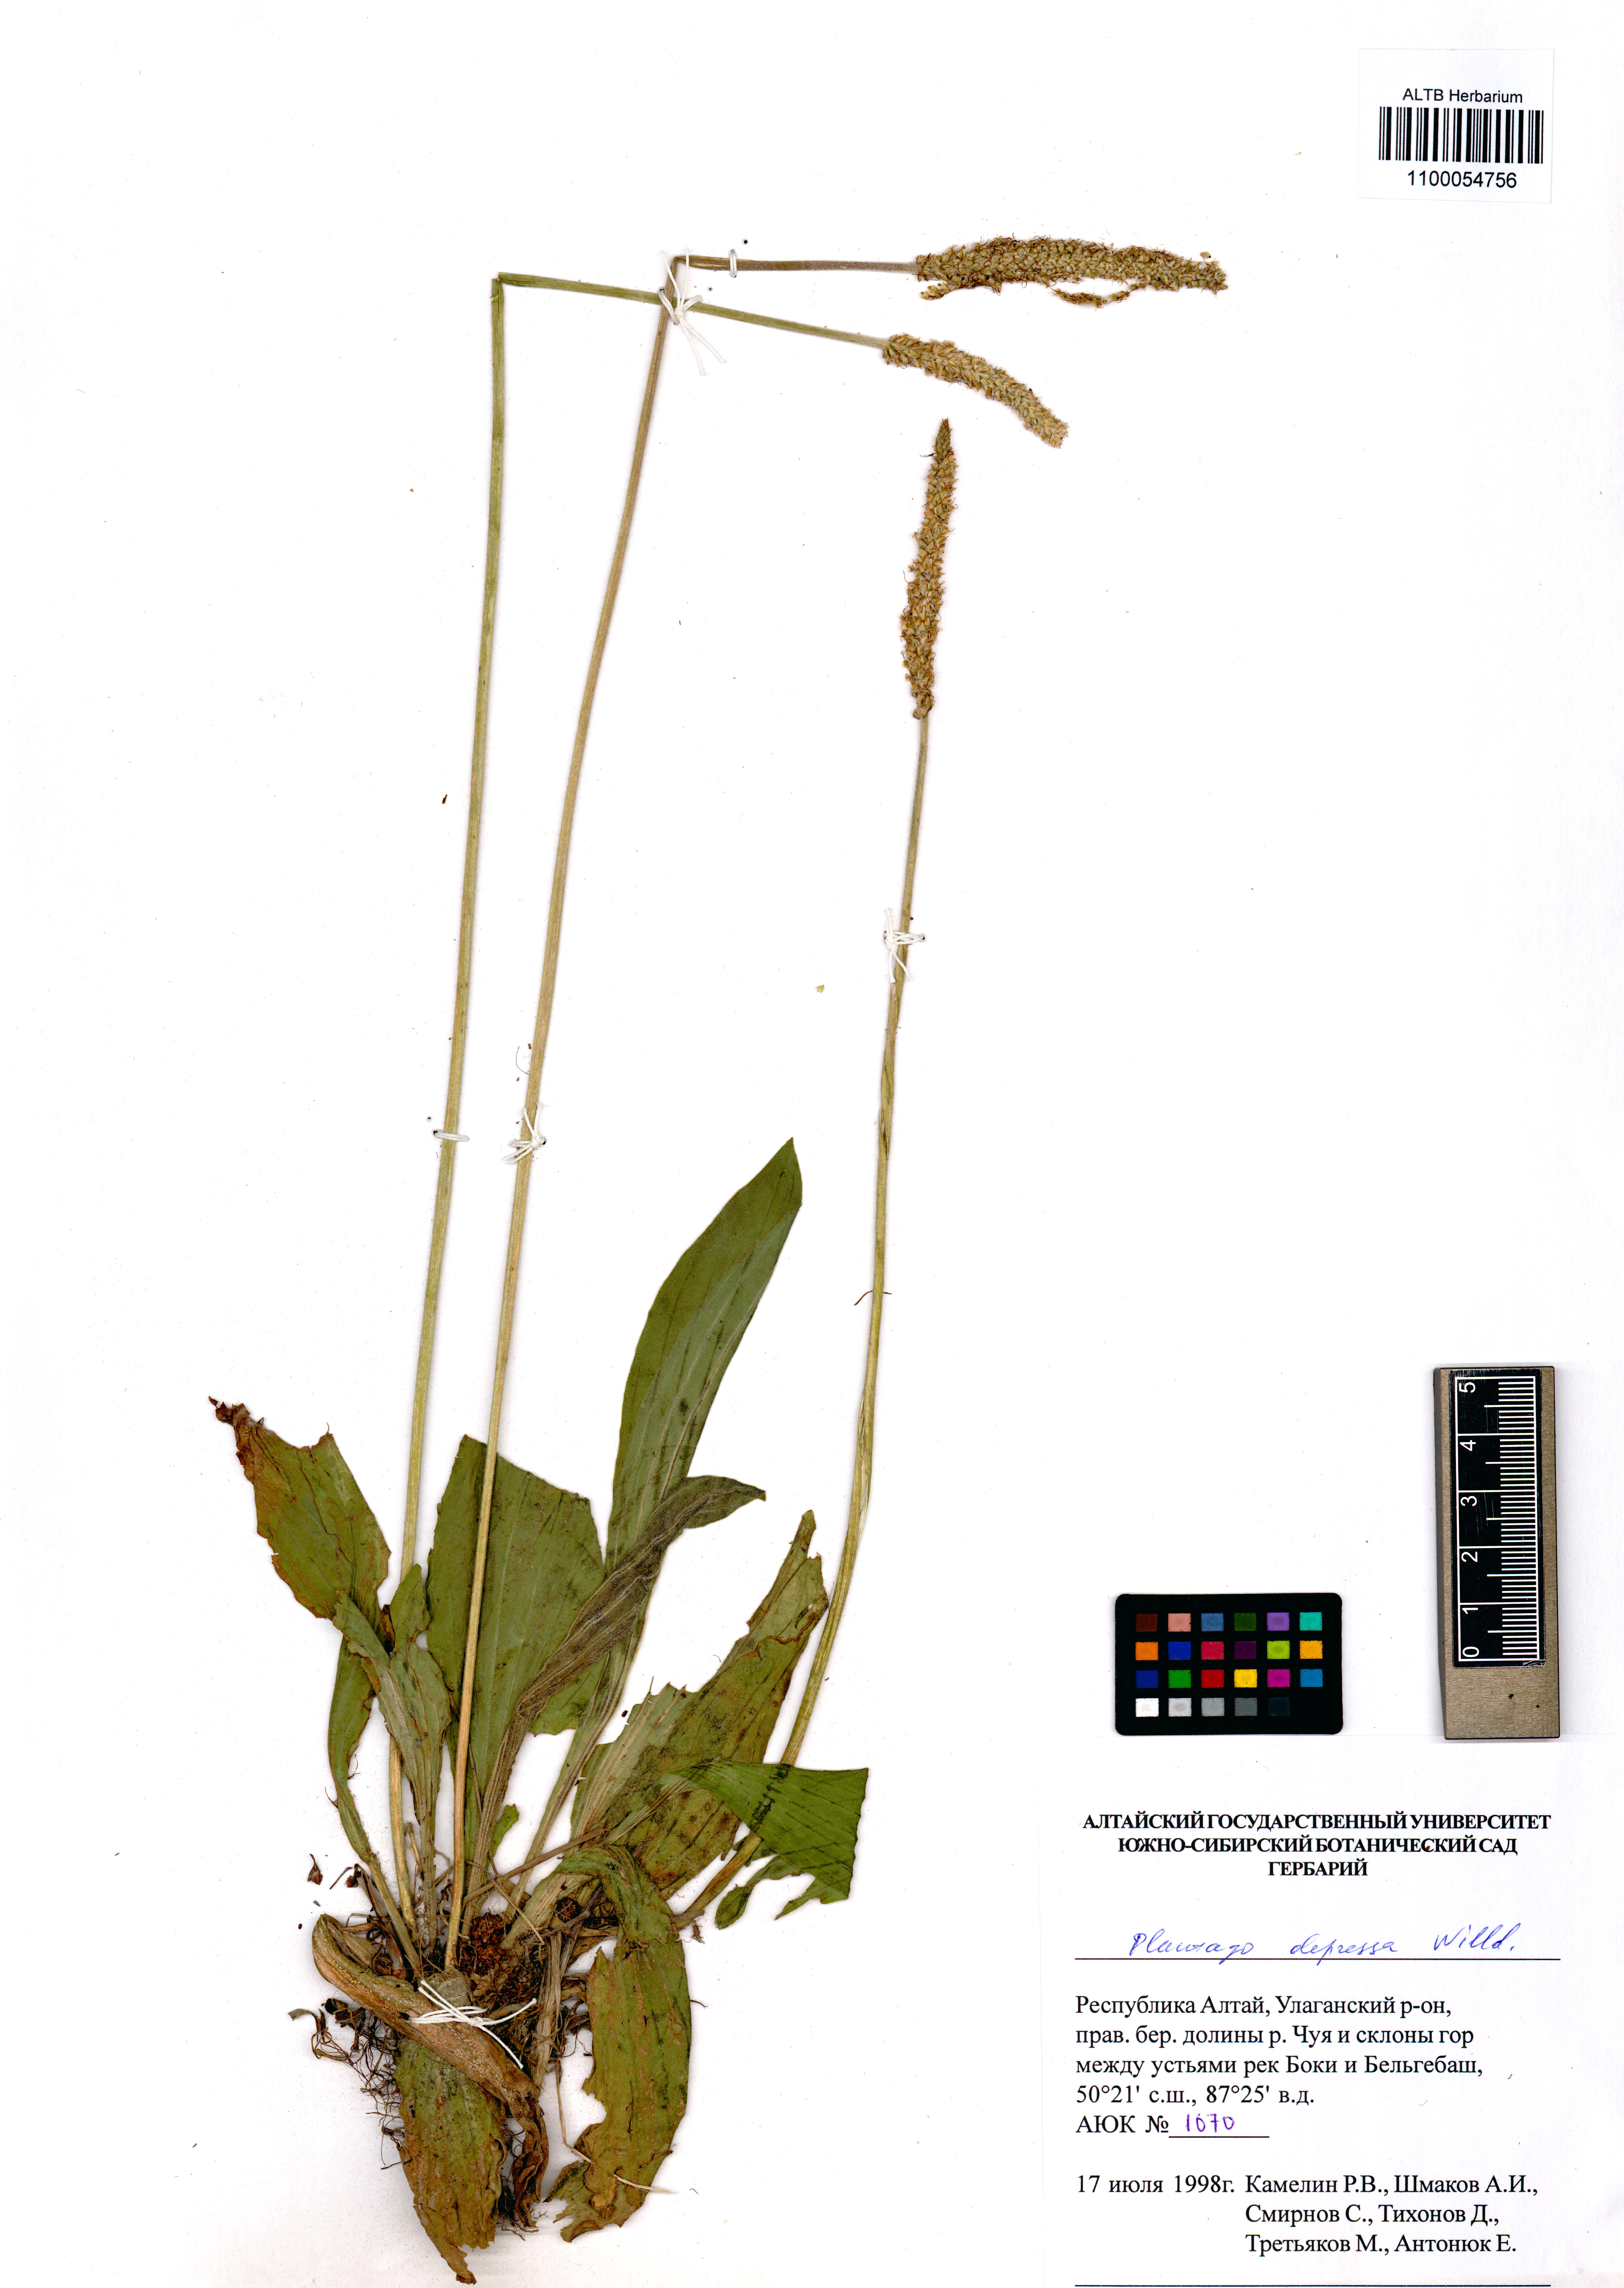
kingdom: Plantae
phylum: Tracheophyta
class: Magnoliopsida
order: Lamiales
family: Plantaginaceae
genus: Plantago
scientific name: Plantago depressa
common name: Depressed plantain
